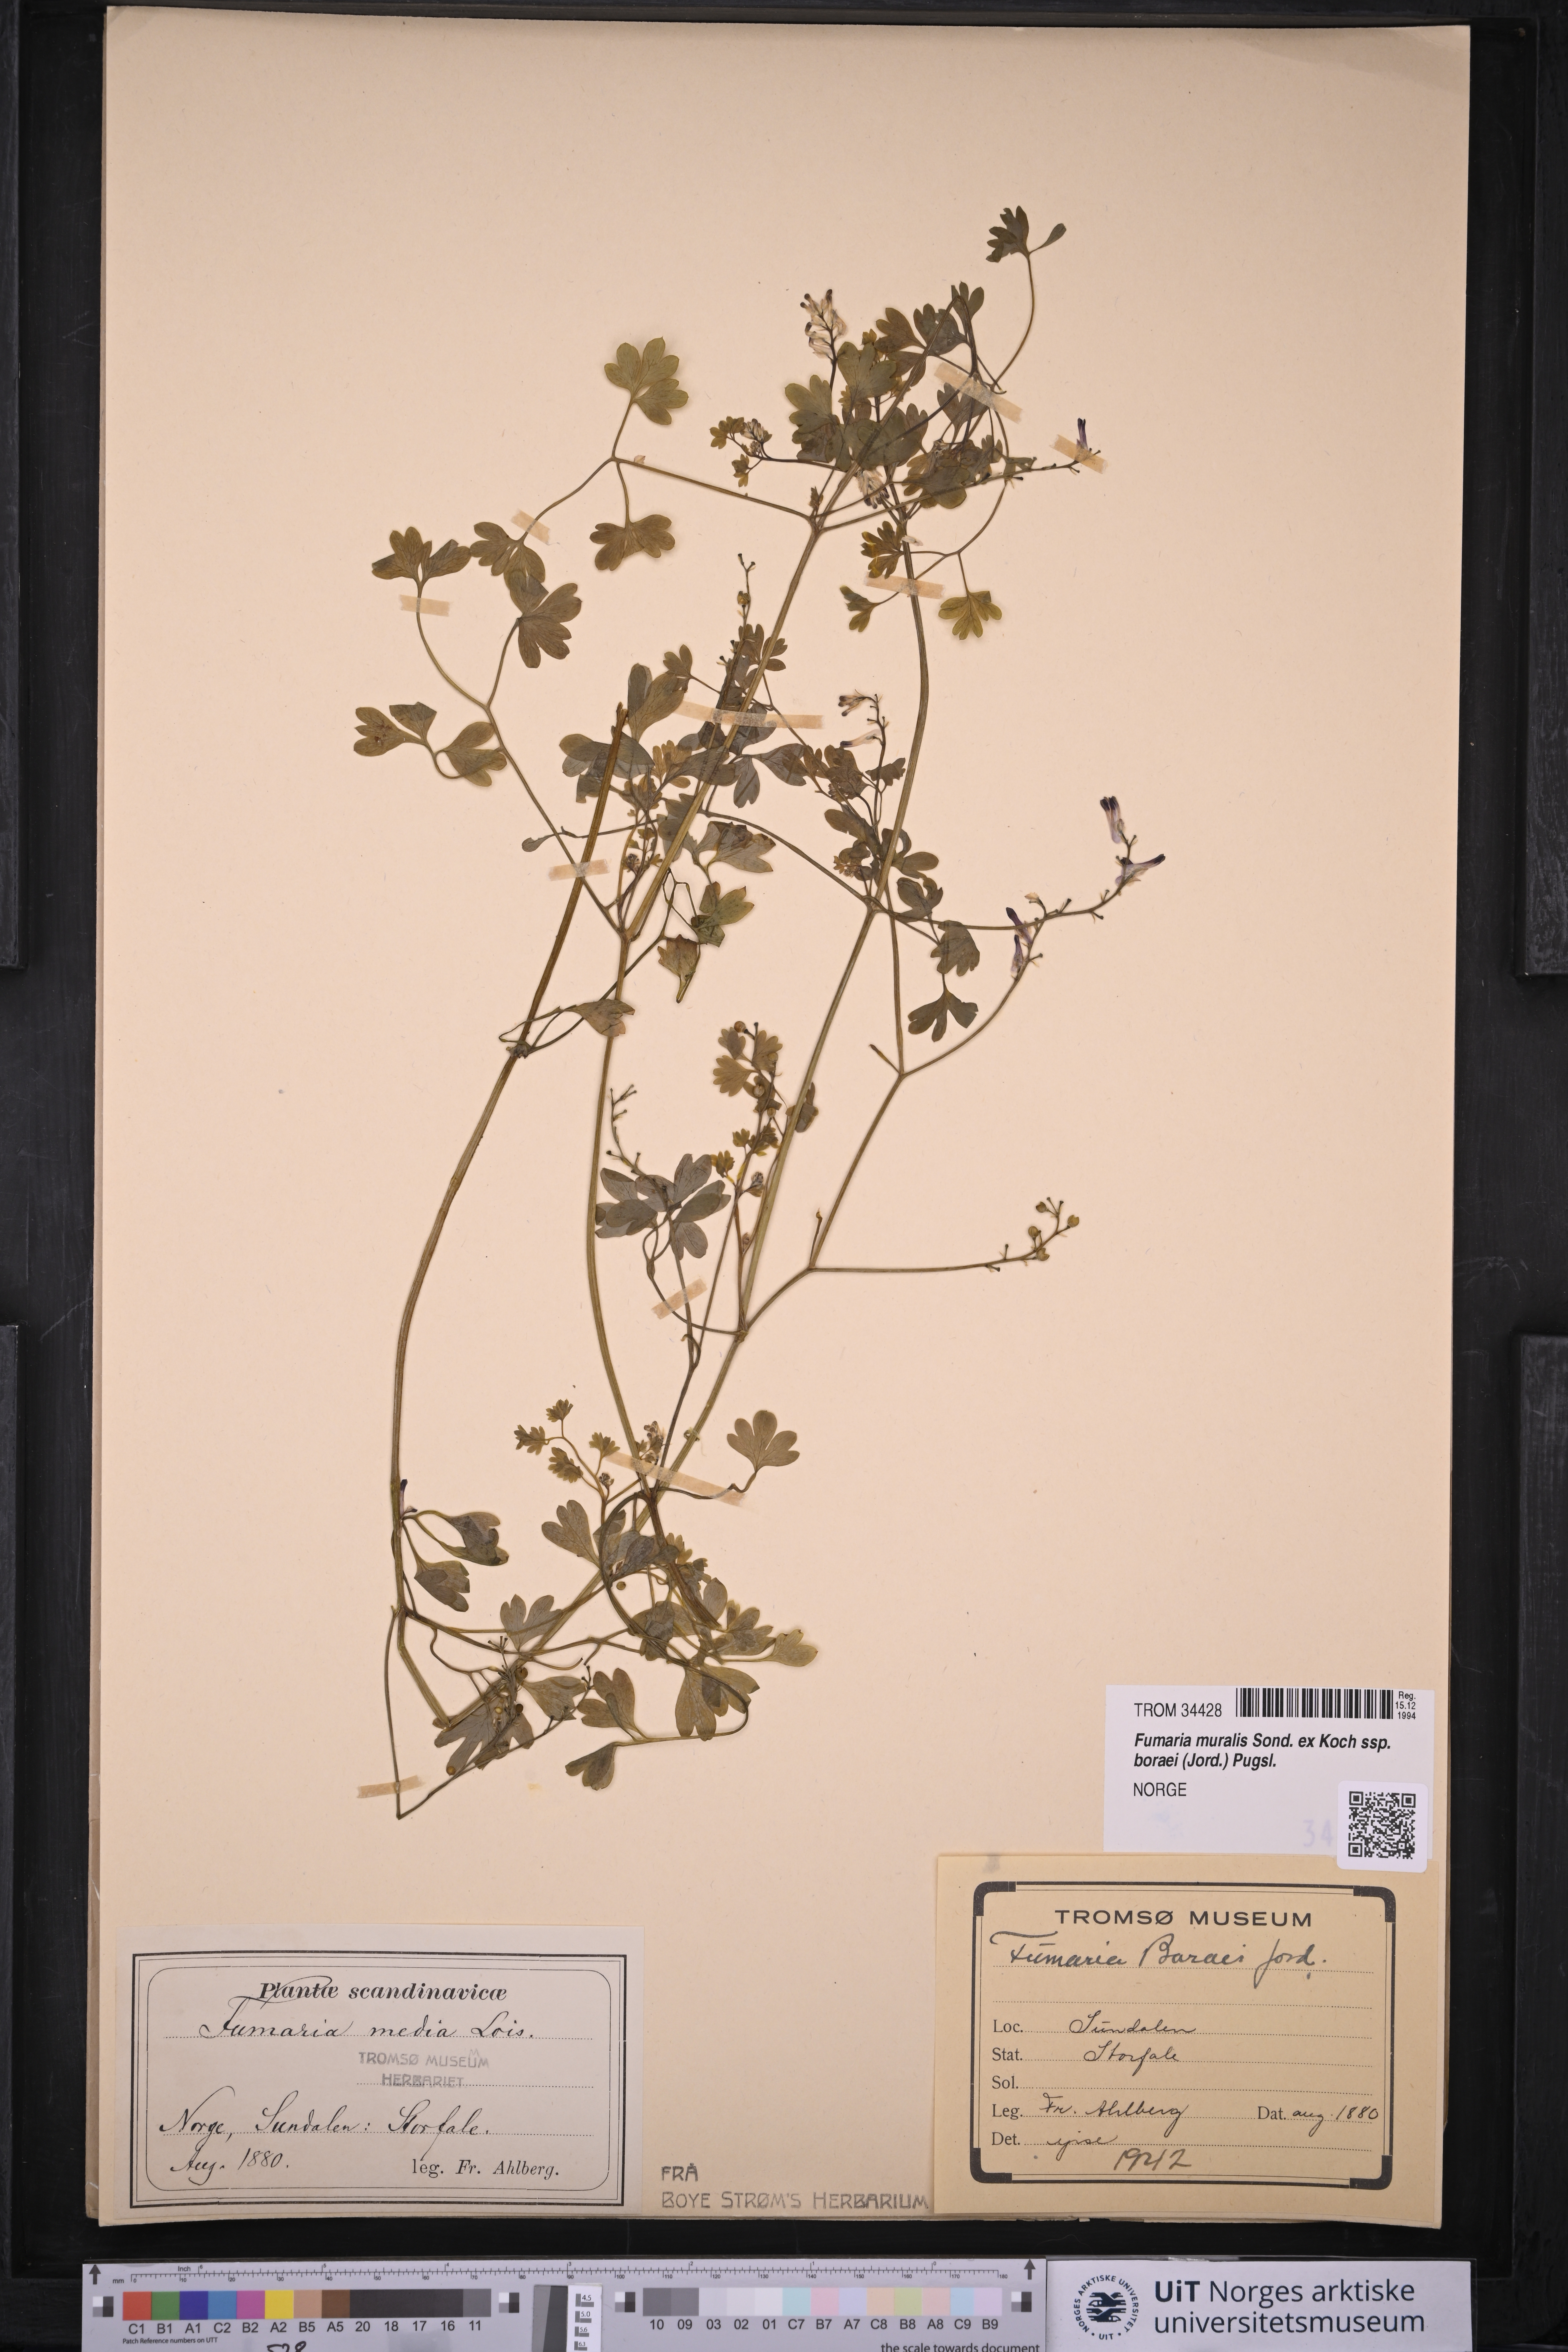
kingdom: Plantae
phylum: Tracheophyta
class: Magnoliopsida
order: Ranunculales
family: Papaveraceae
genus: Fumaria
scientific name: Fumaria muralis
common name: Common ramping-fumitory
